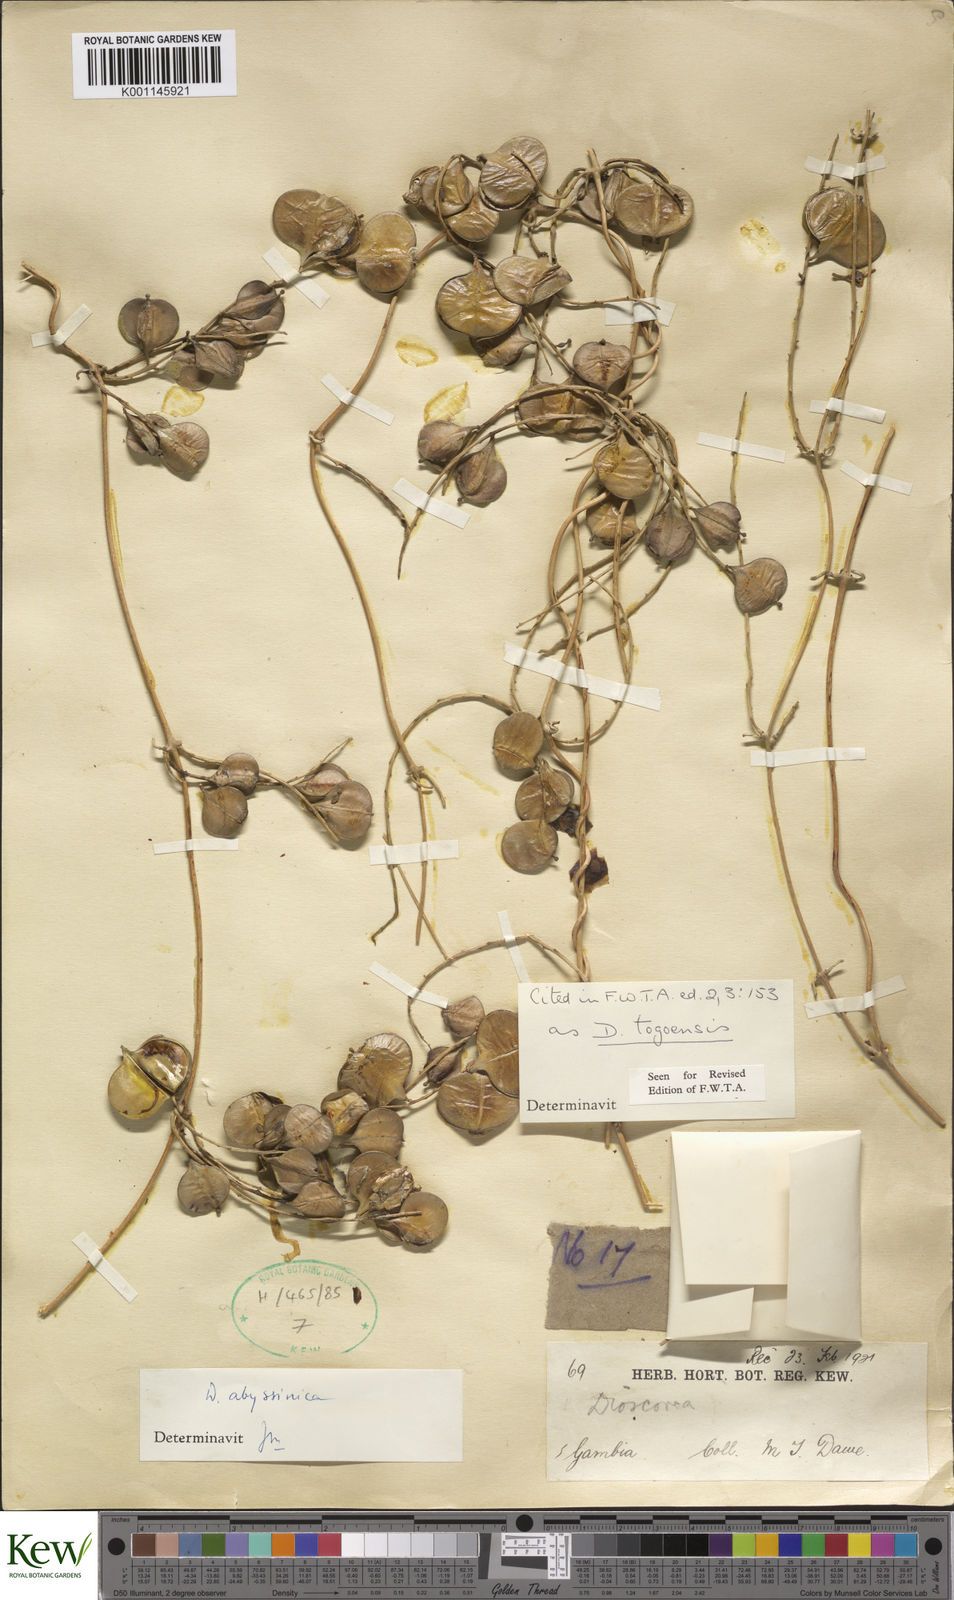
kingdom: Plantae
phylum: Tracheophyta
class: Liliopsida
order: Dioscoreales
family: Dioscoreaceae
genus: Dioscorea
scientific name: Dioscorea togoensis
